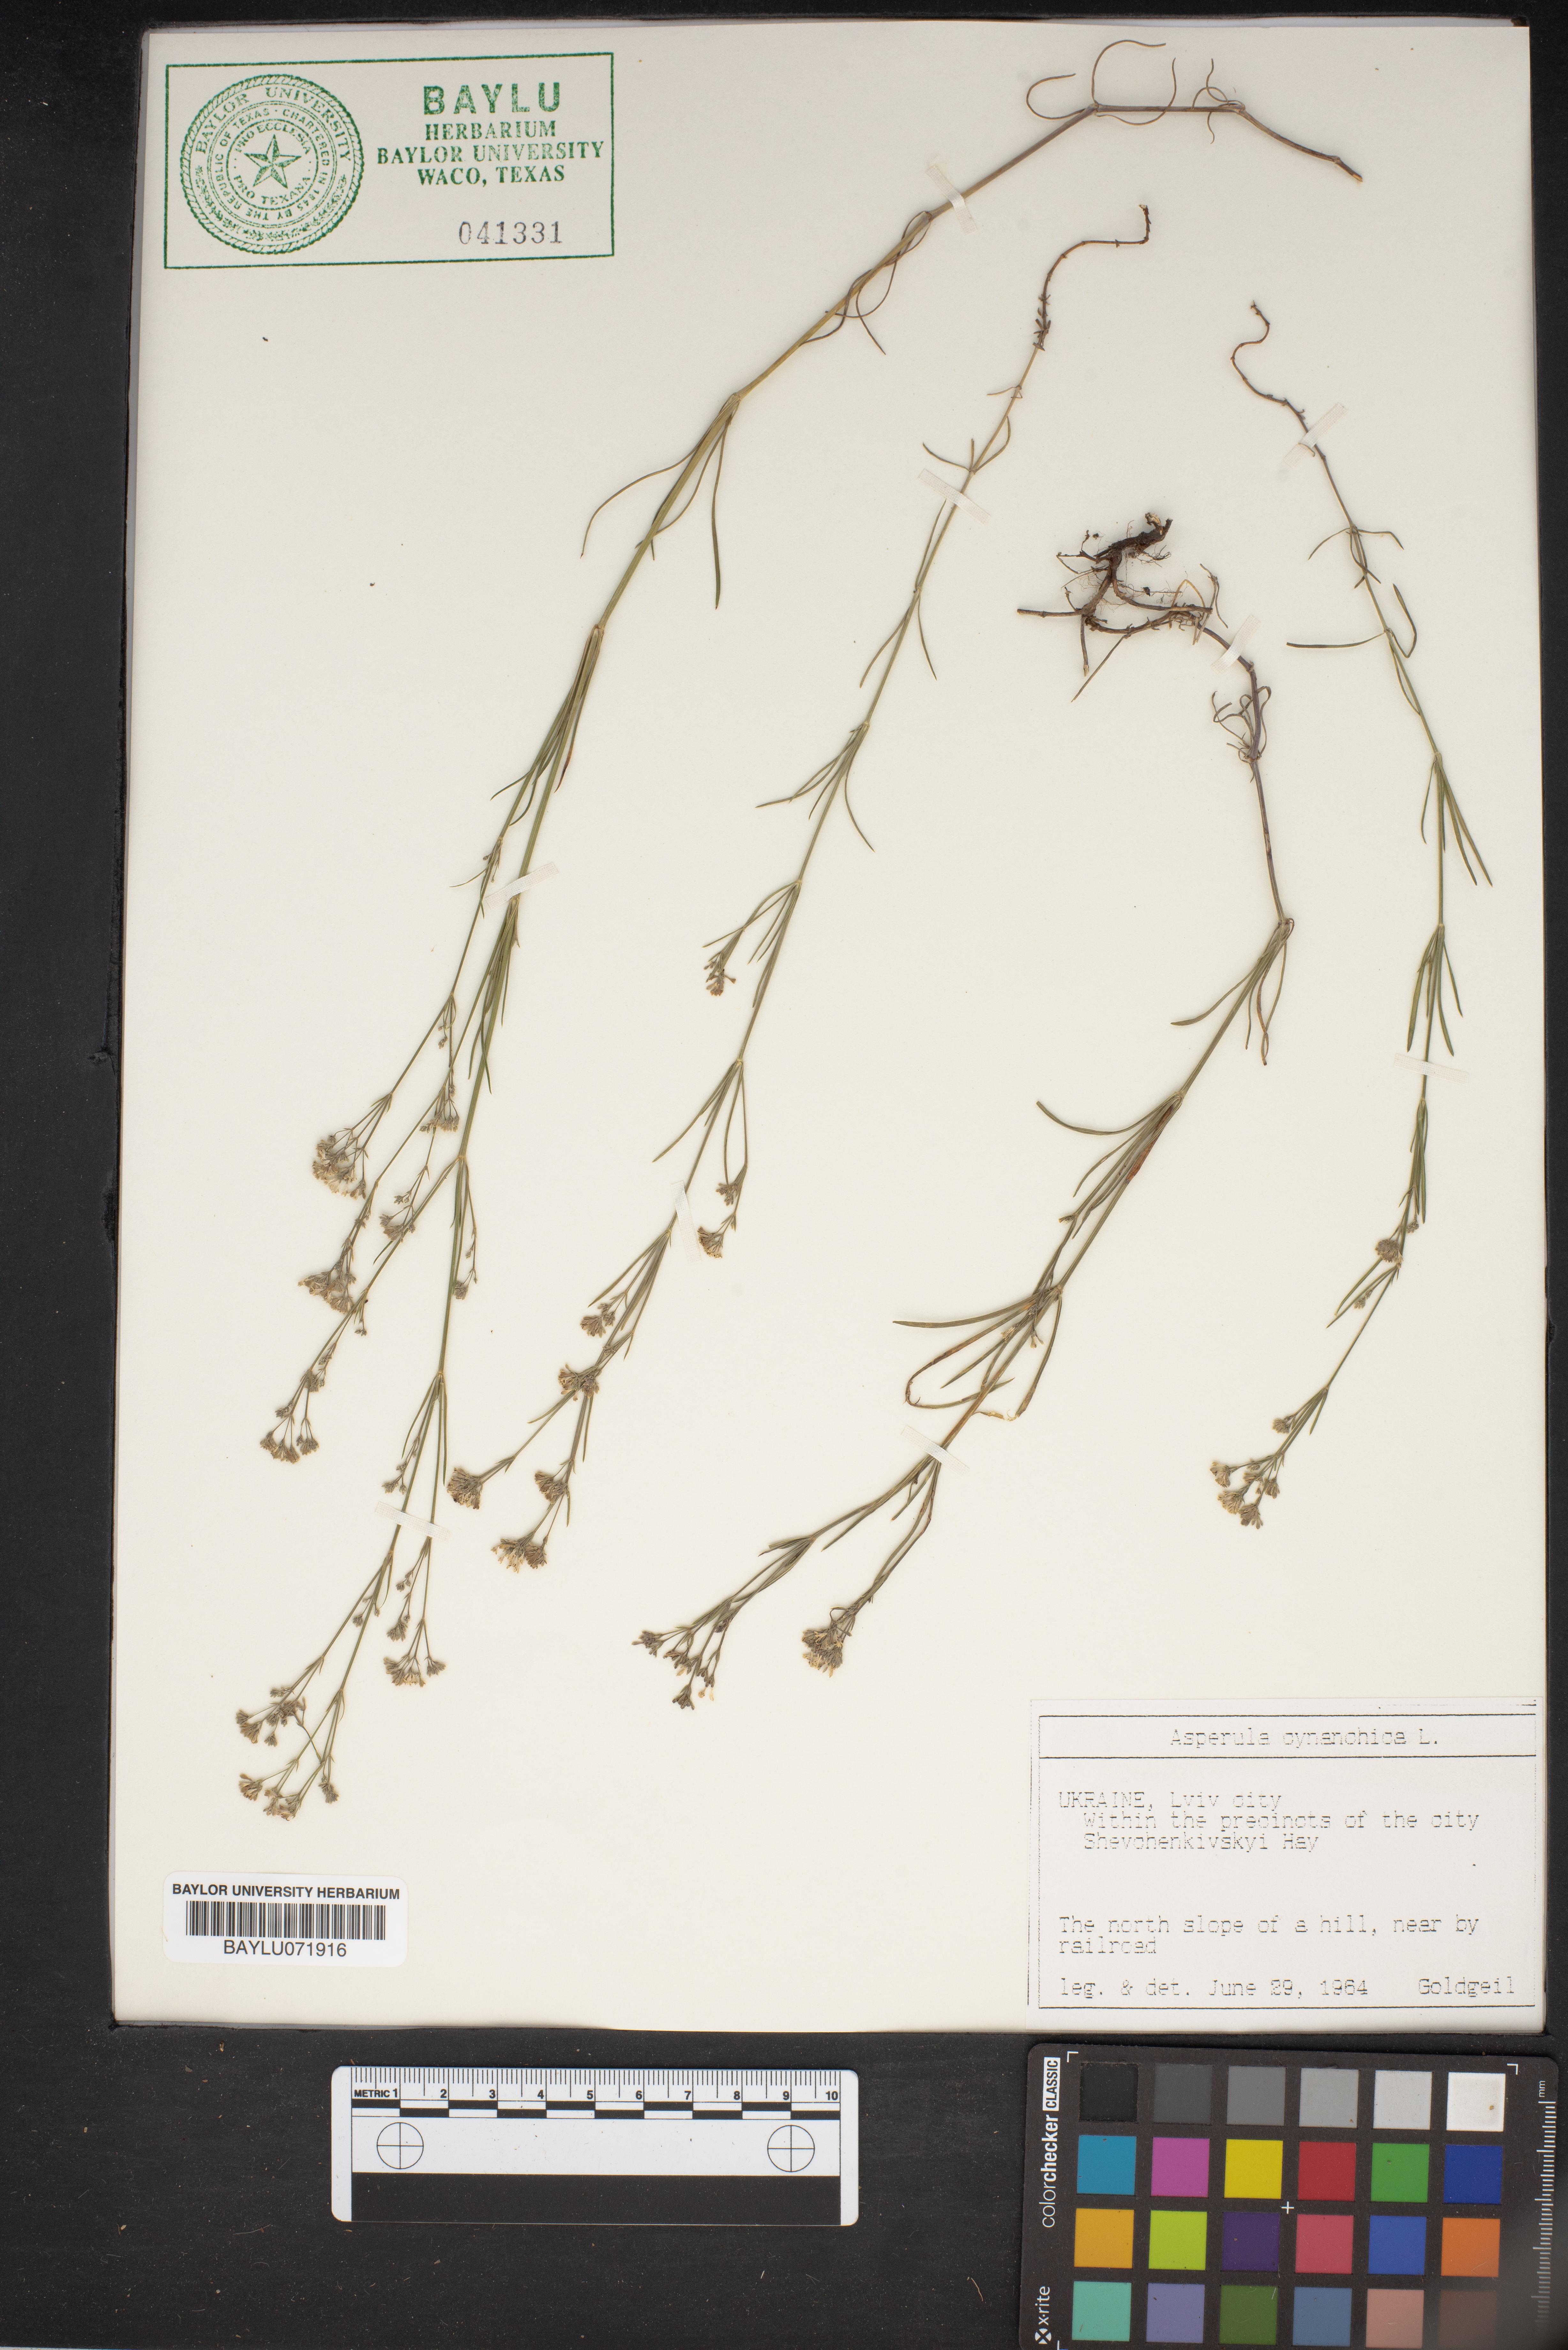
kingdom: Plantae
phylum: Tracheophyta
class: Magnoliopsida
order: Gentianales
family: Rubiaceae
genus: Cynanchica
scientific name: Cynanchica pyrenaica
